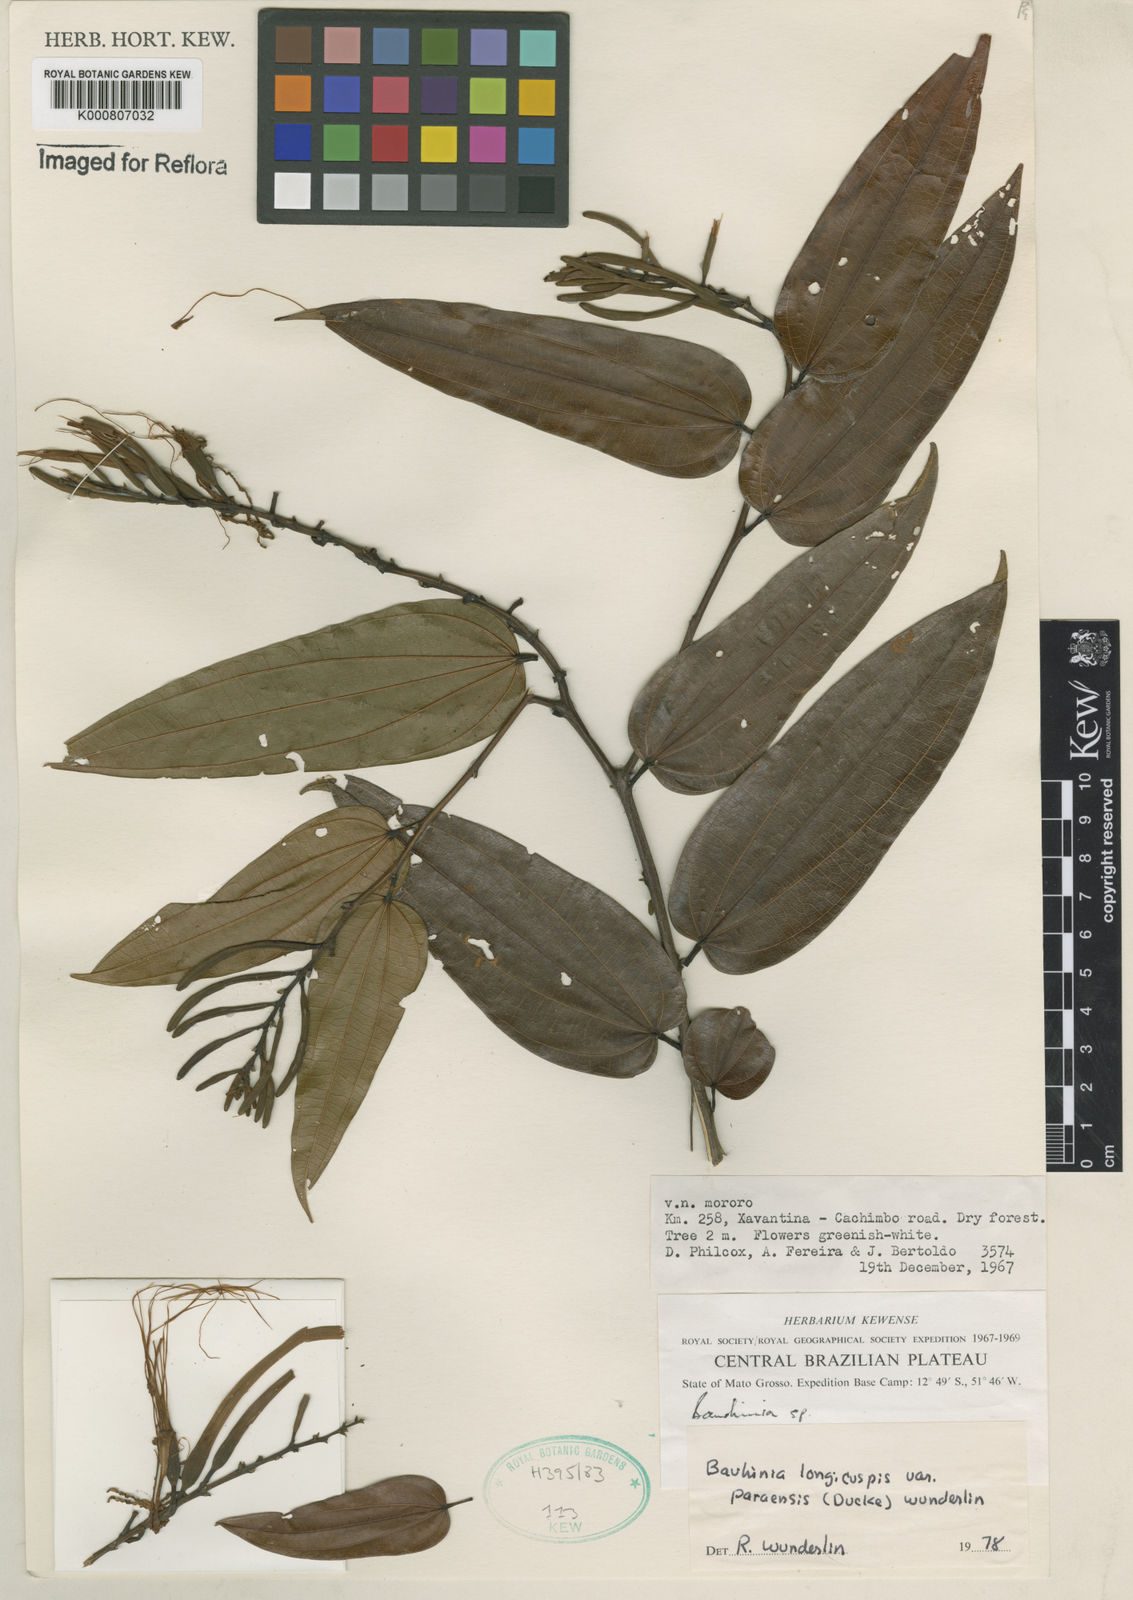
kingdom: Plantae
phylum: Tracheophyta
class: Magnoliopsida
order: Fabales
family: Fabaceae
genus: Bauhinia
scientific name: Bauhinia longicuspis
